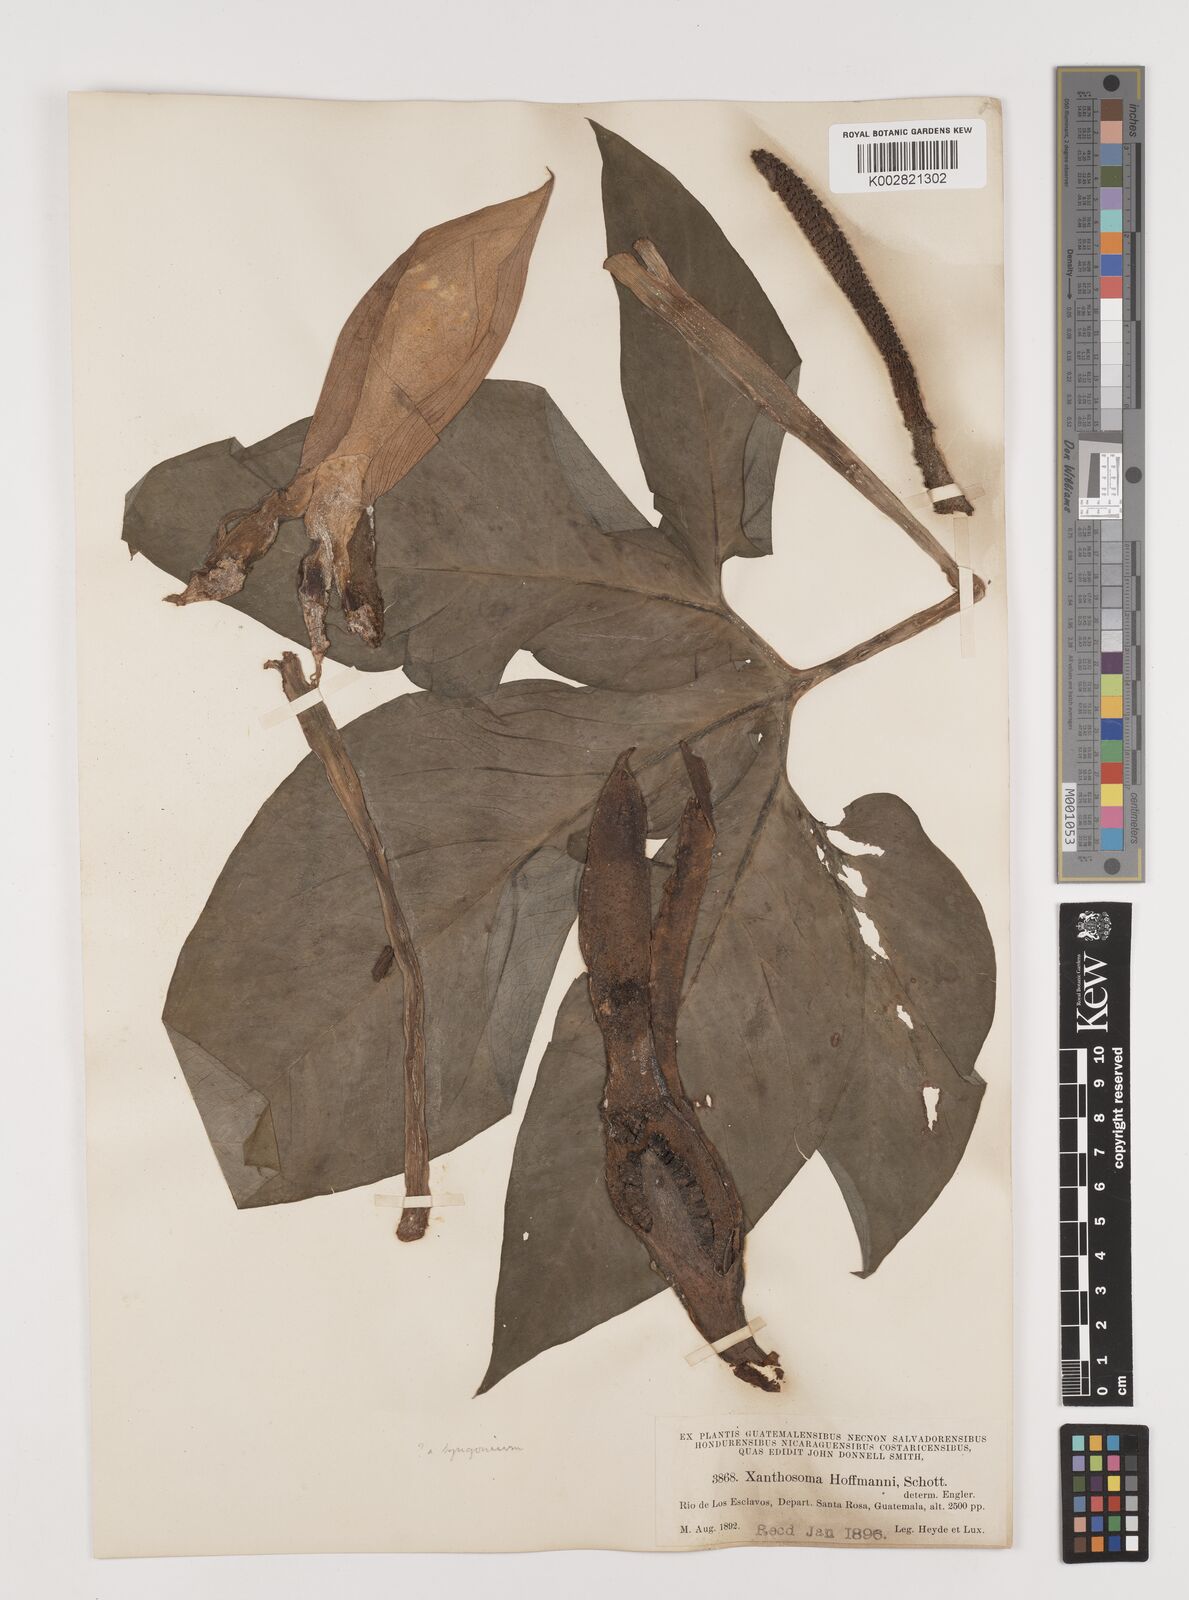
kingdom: Plantae
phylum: Tracheophyta
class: Liliopsida
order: Alismatales
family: Araceae
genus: Xanthosoma
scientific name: Xanthosoma wendlandii
